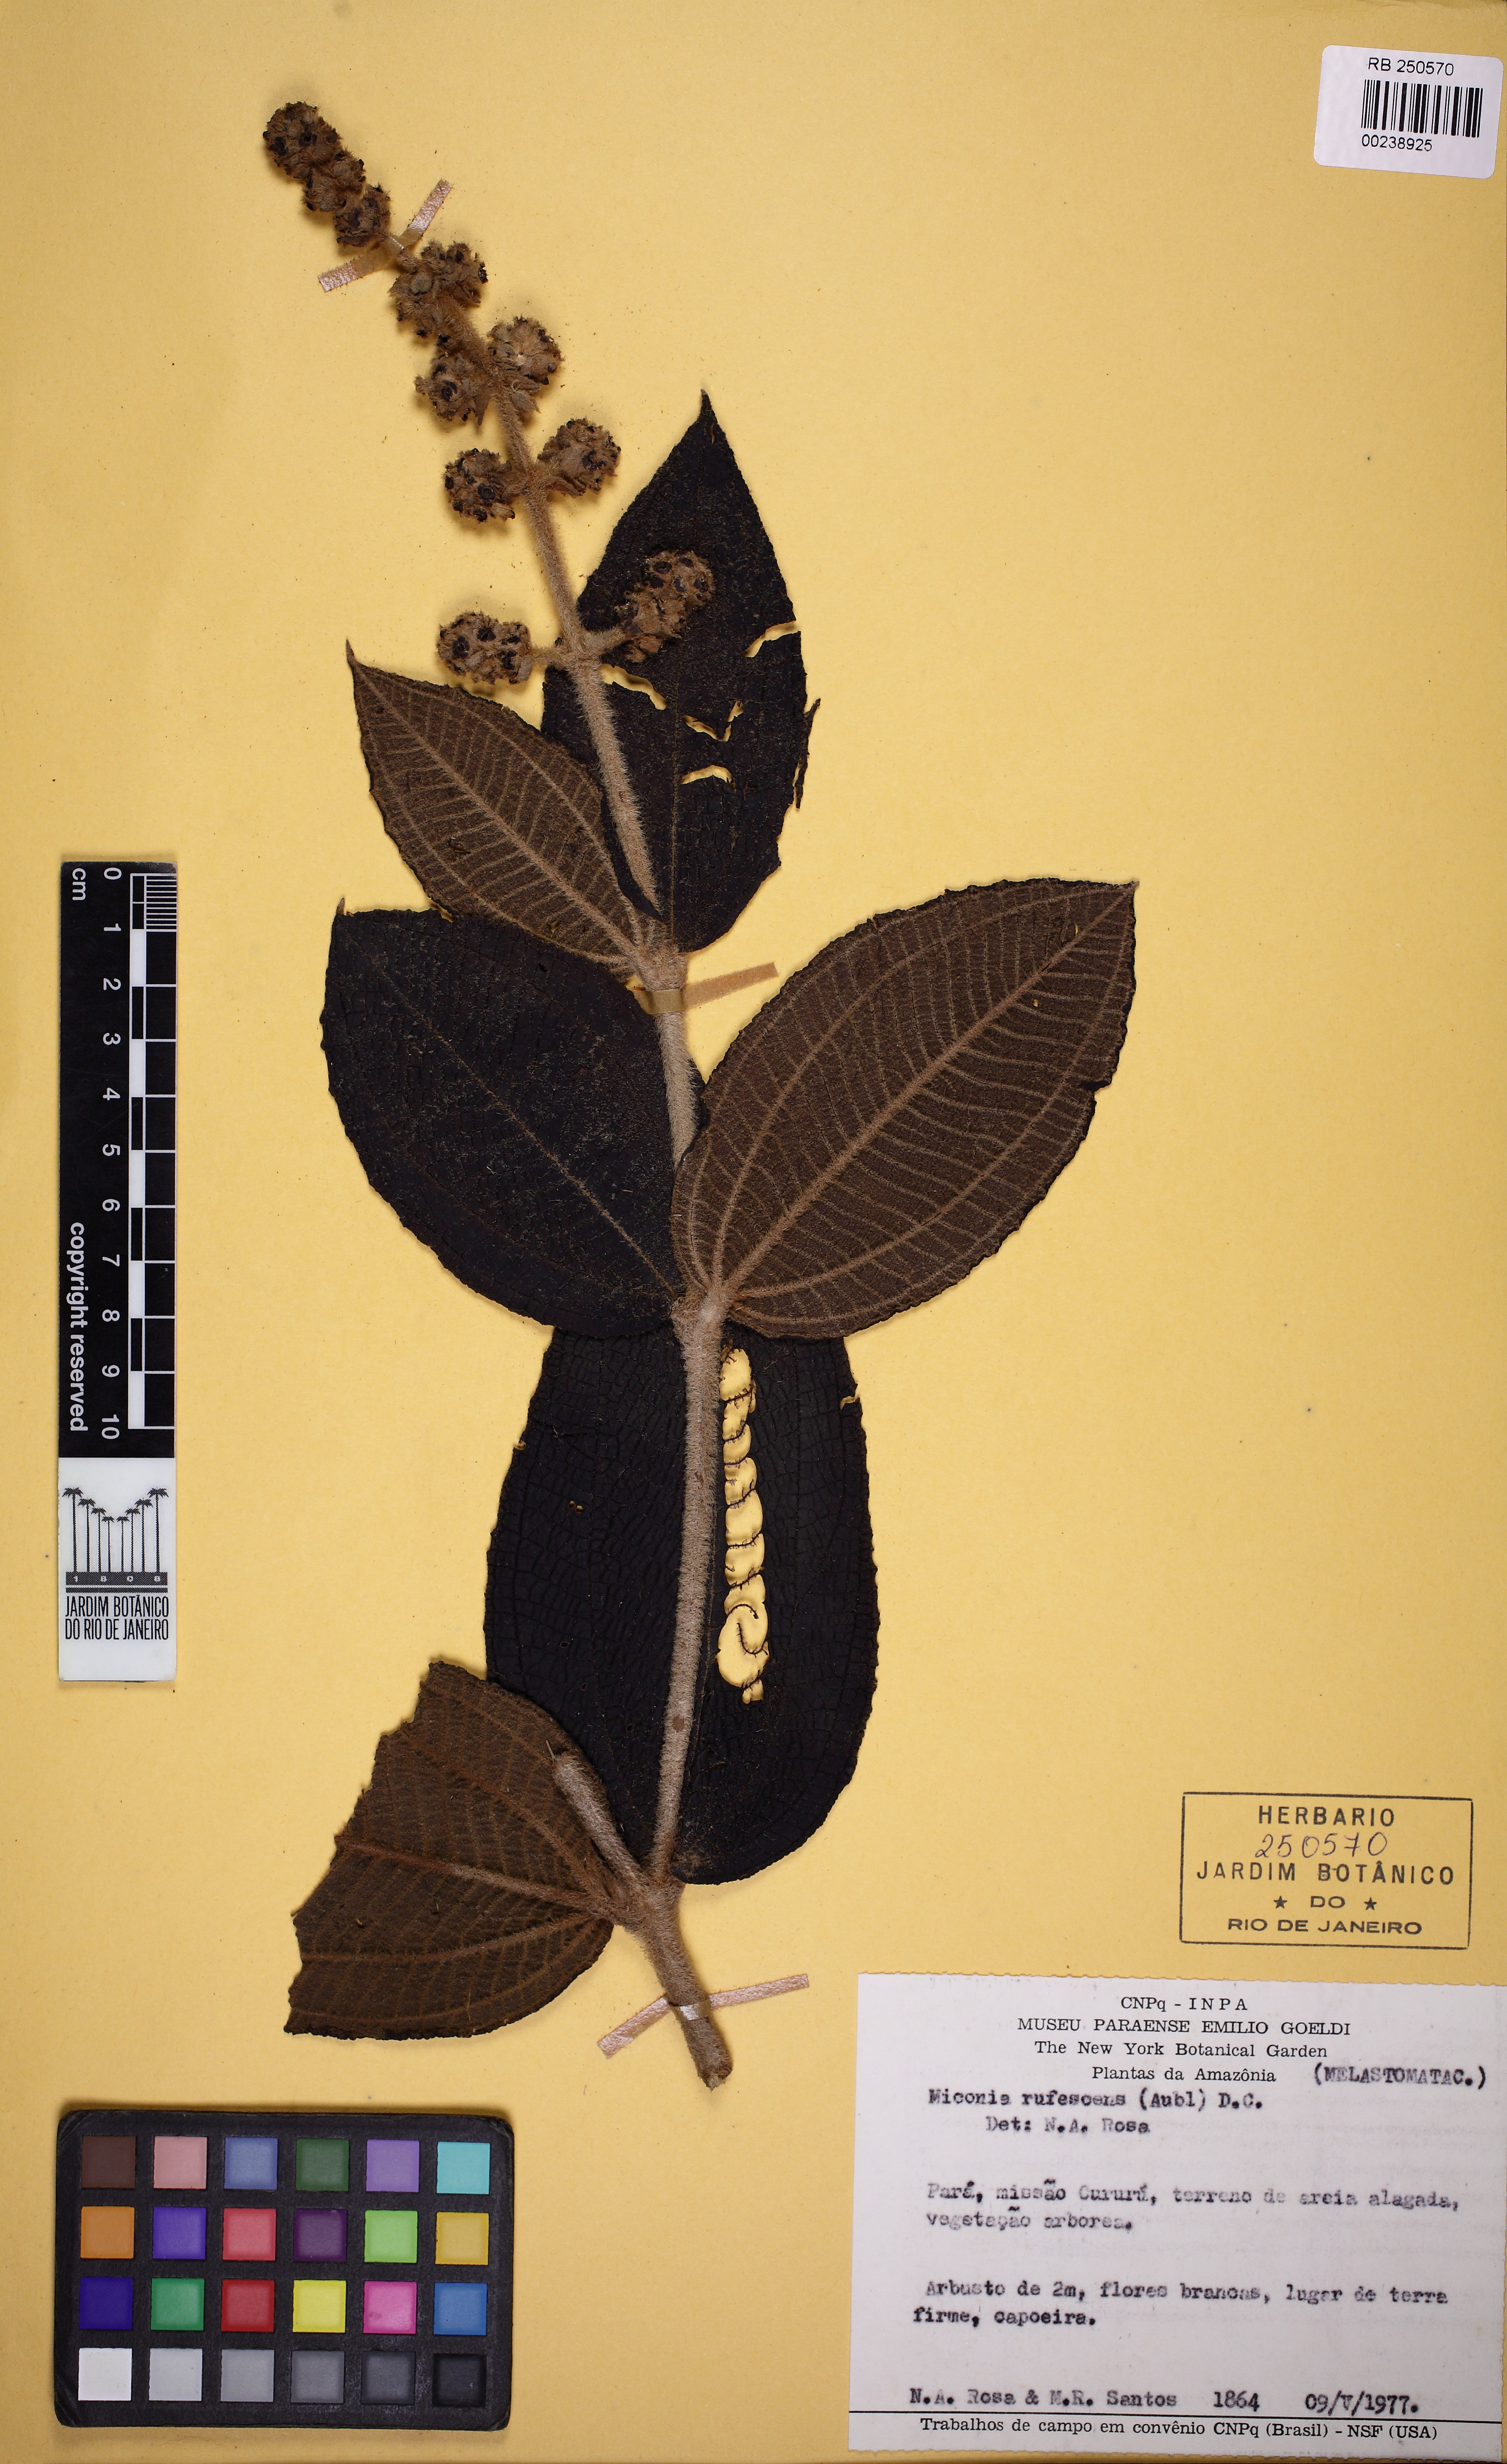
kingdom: Plantae
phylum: Tracheophyta
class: Magnoliopsida
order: Myrtales
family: Melastomataceae
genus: Miconia
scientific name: Miconia rufescens
